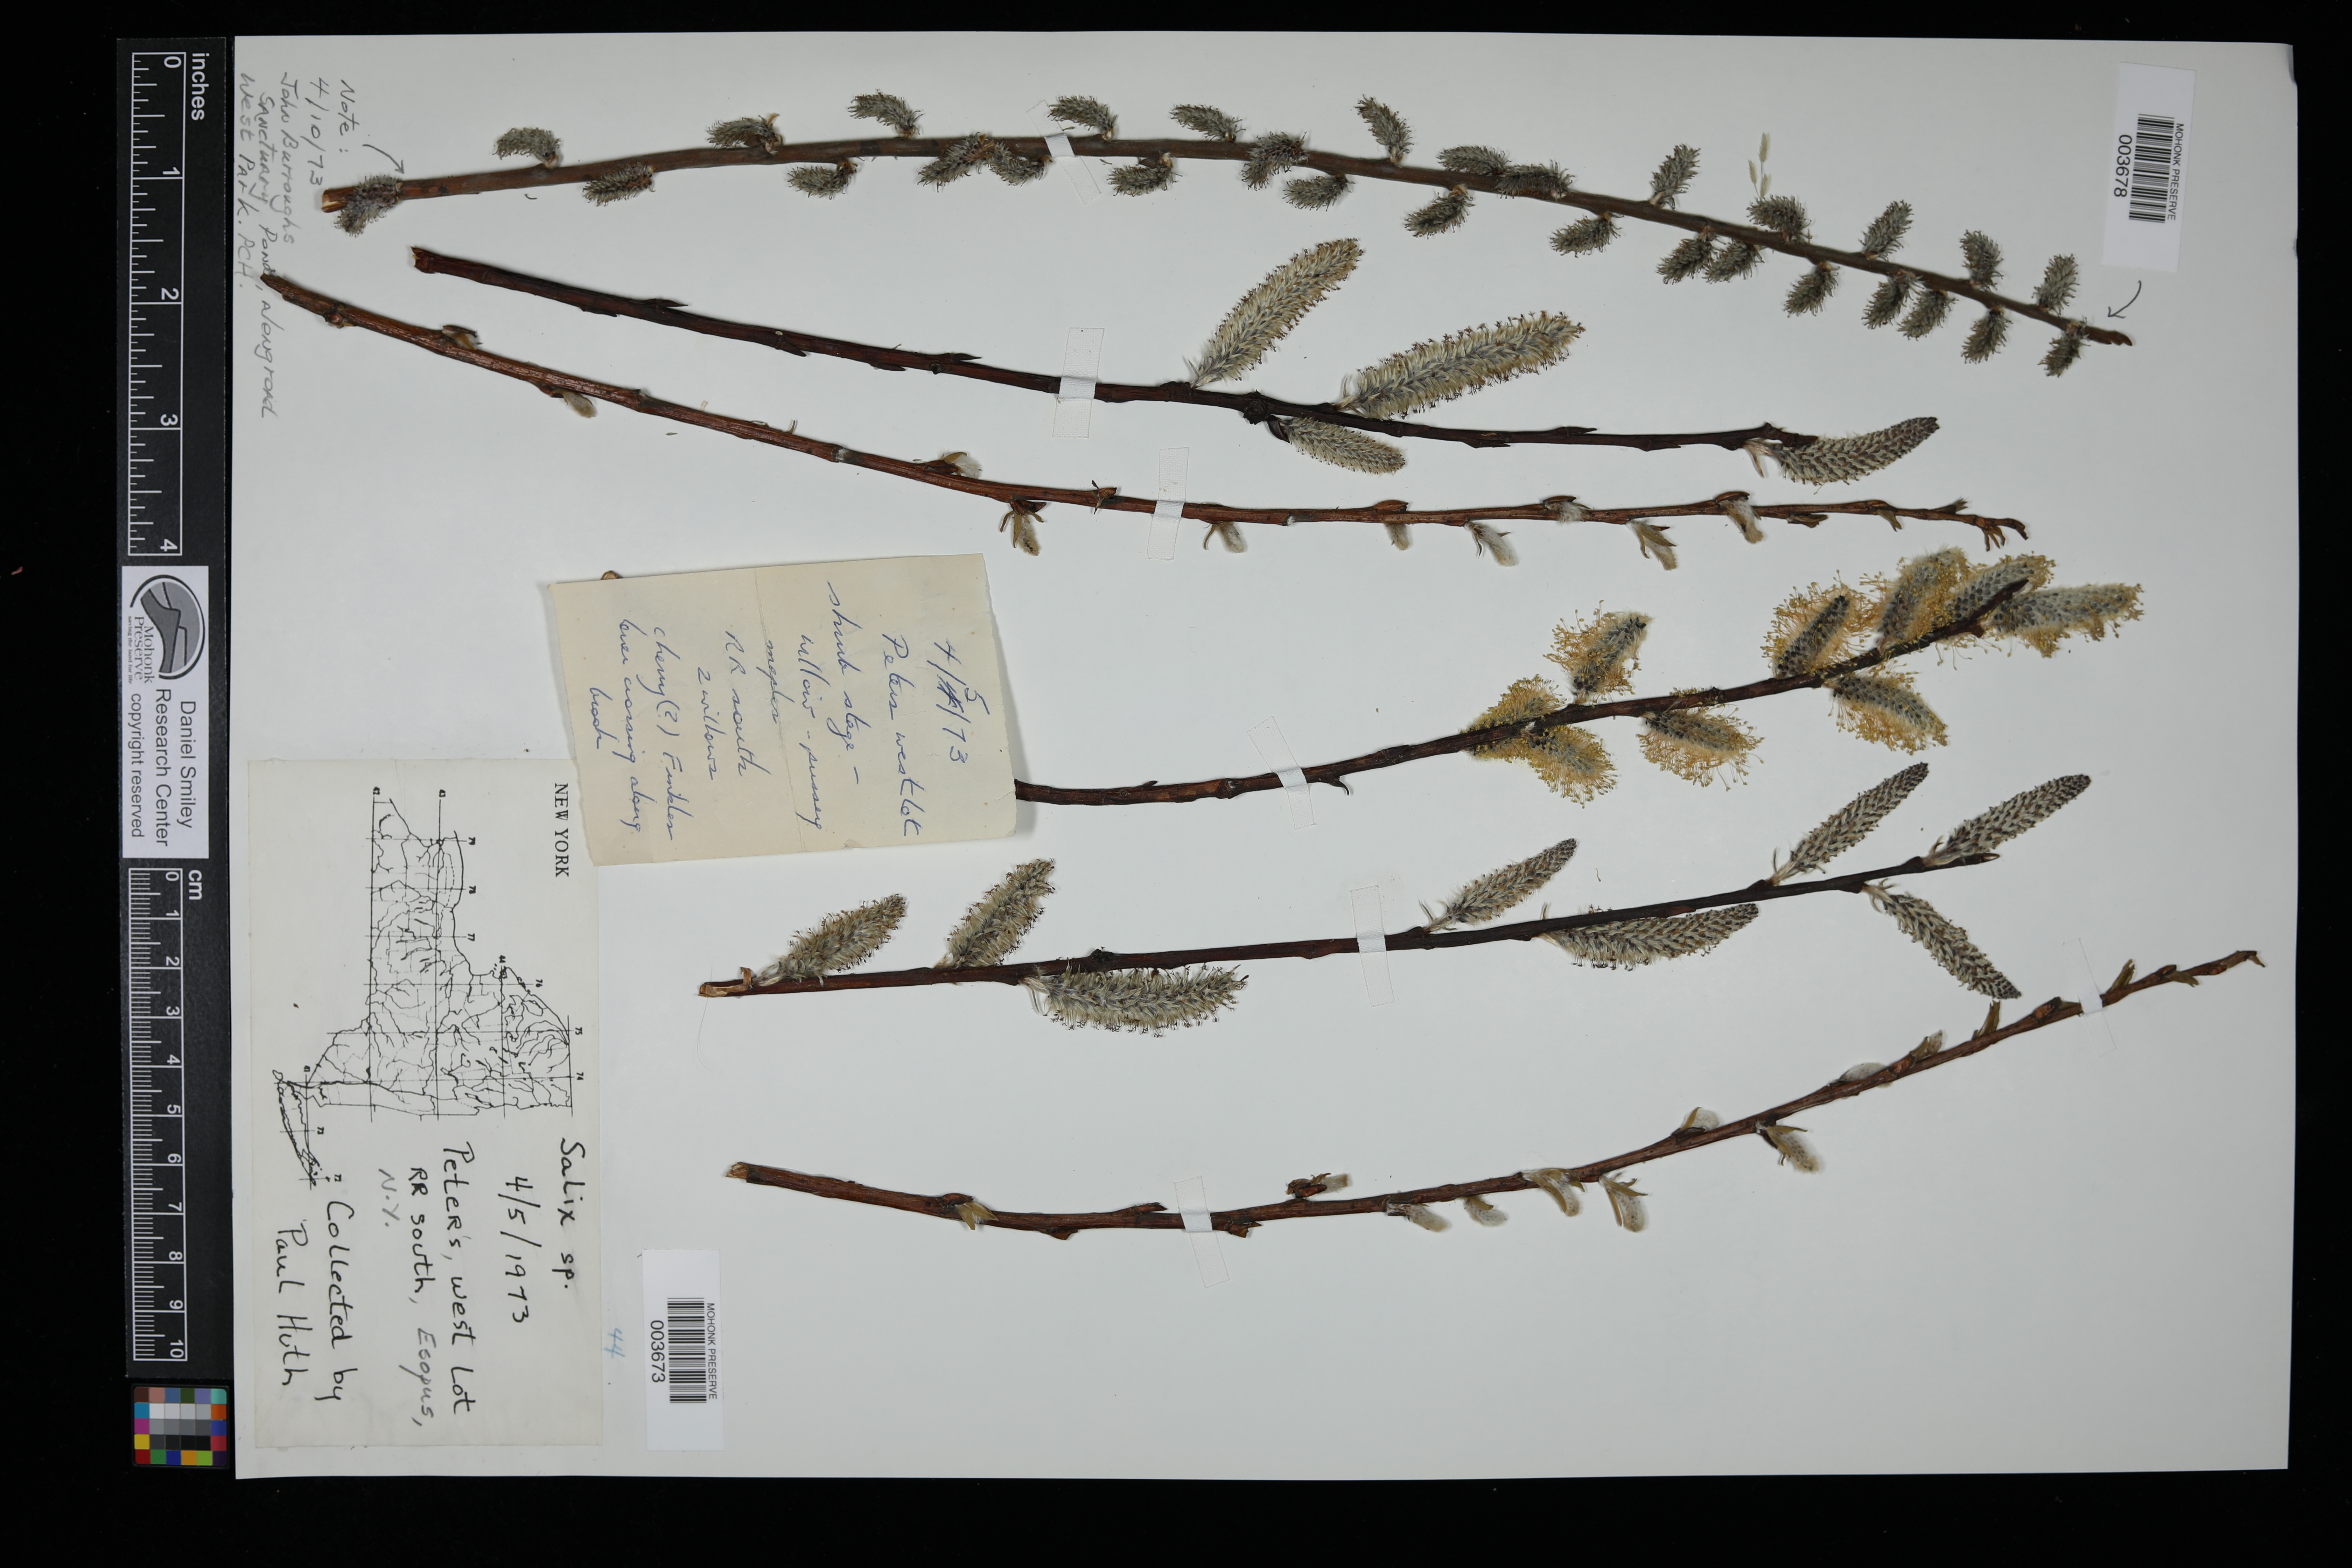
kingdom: Plantae
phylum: Tracheophyta
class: Magnoliopsida
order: Malpighiales
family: Salicaceae
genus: Salix
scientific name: Salix
